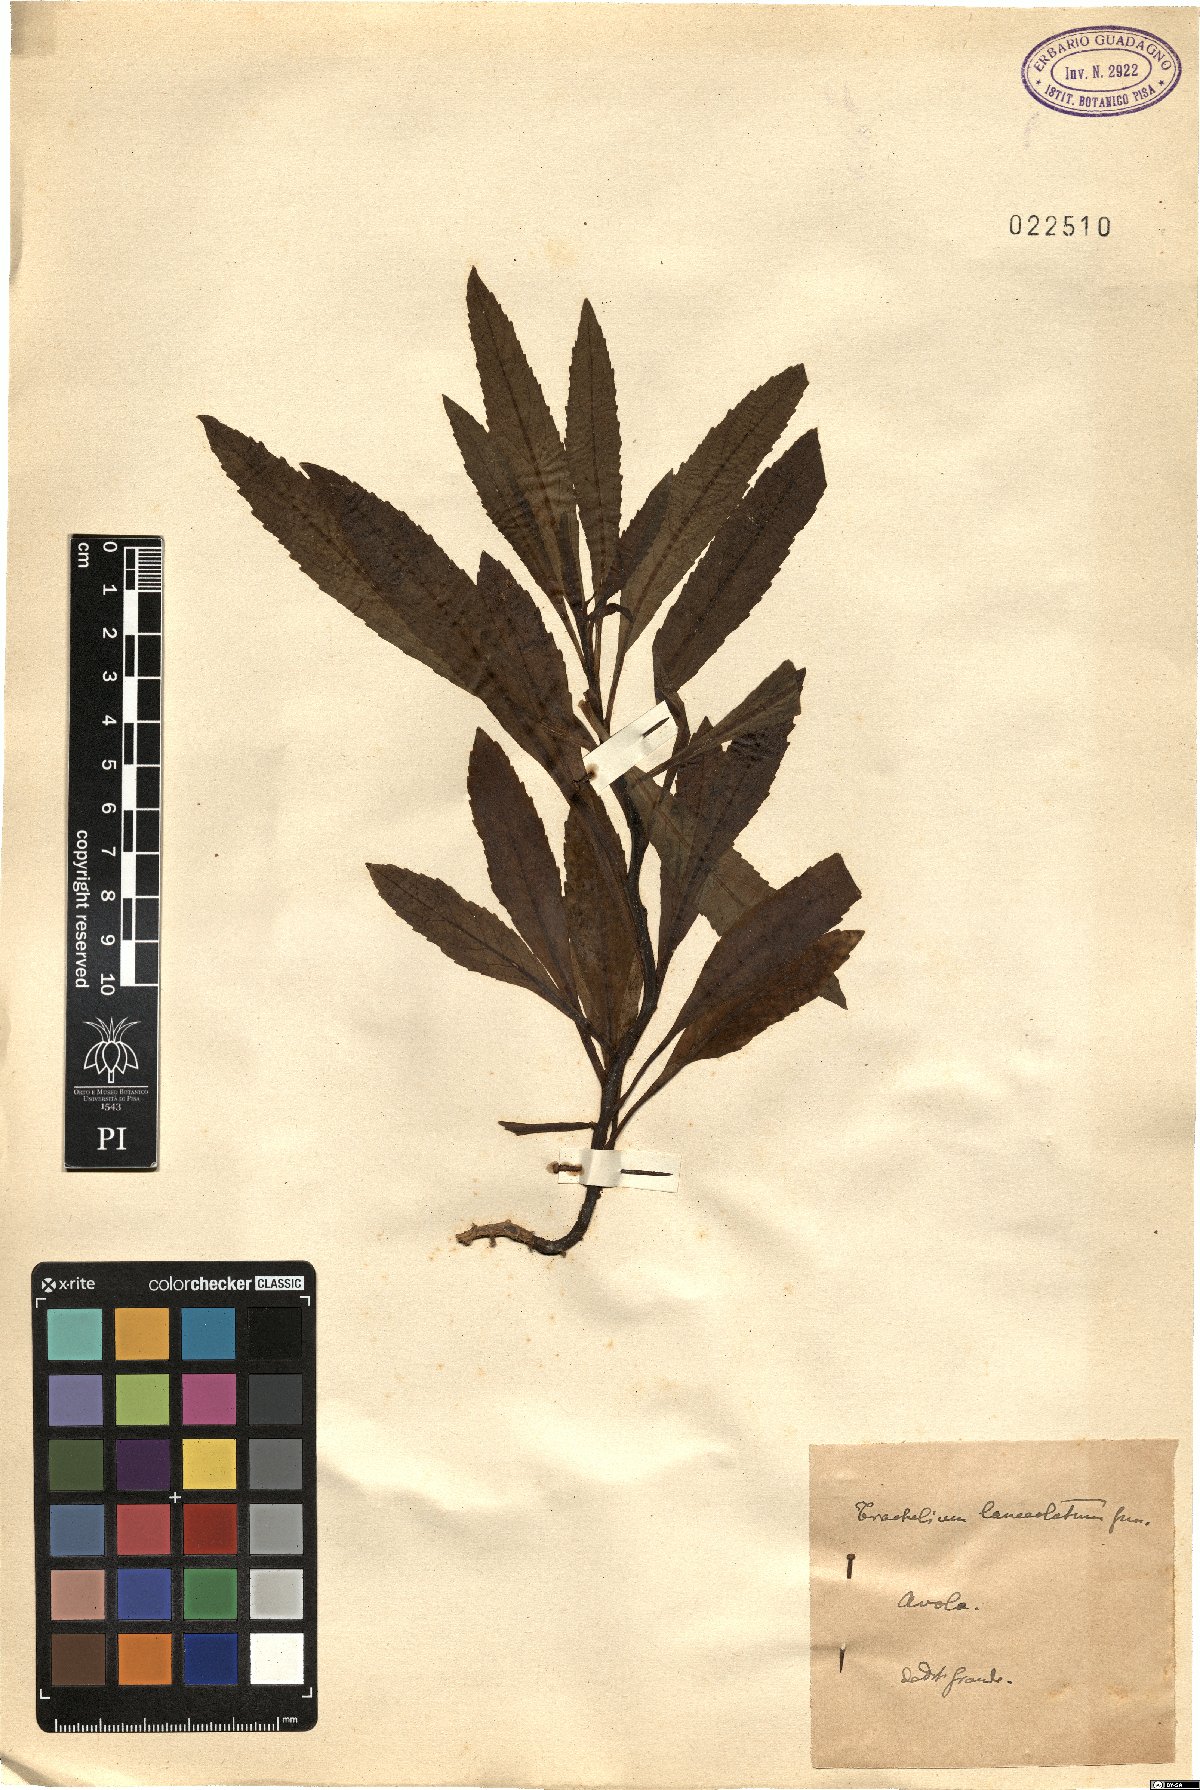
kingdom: Plantae
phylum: Tracheophyta
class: Magnoliopsida
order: Asterales
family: Campanulaceae
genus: Trachelium
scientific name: Trachelium lanceolatum
